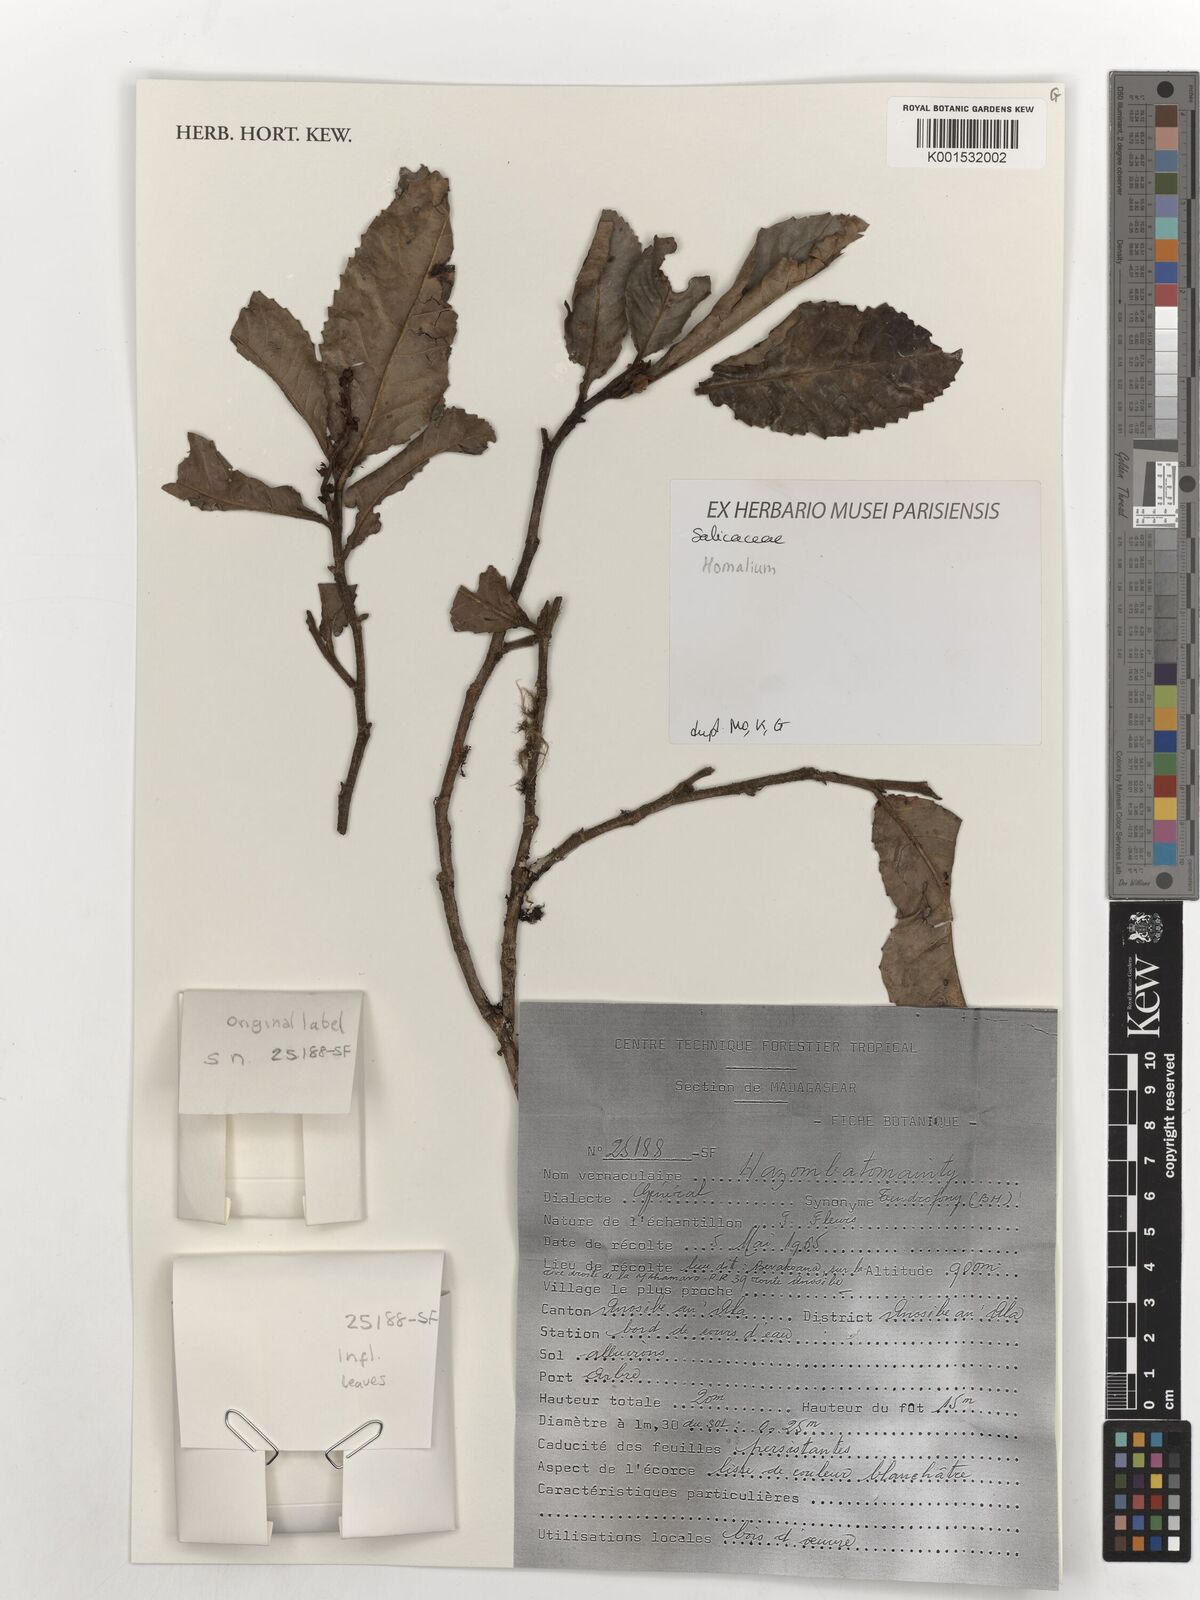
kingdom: Plantae
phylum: Tracheophyta
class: Magnoliopsida
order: Malpighiales
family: Salicaceae
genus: Homalium
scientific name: Homalium
